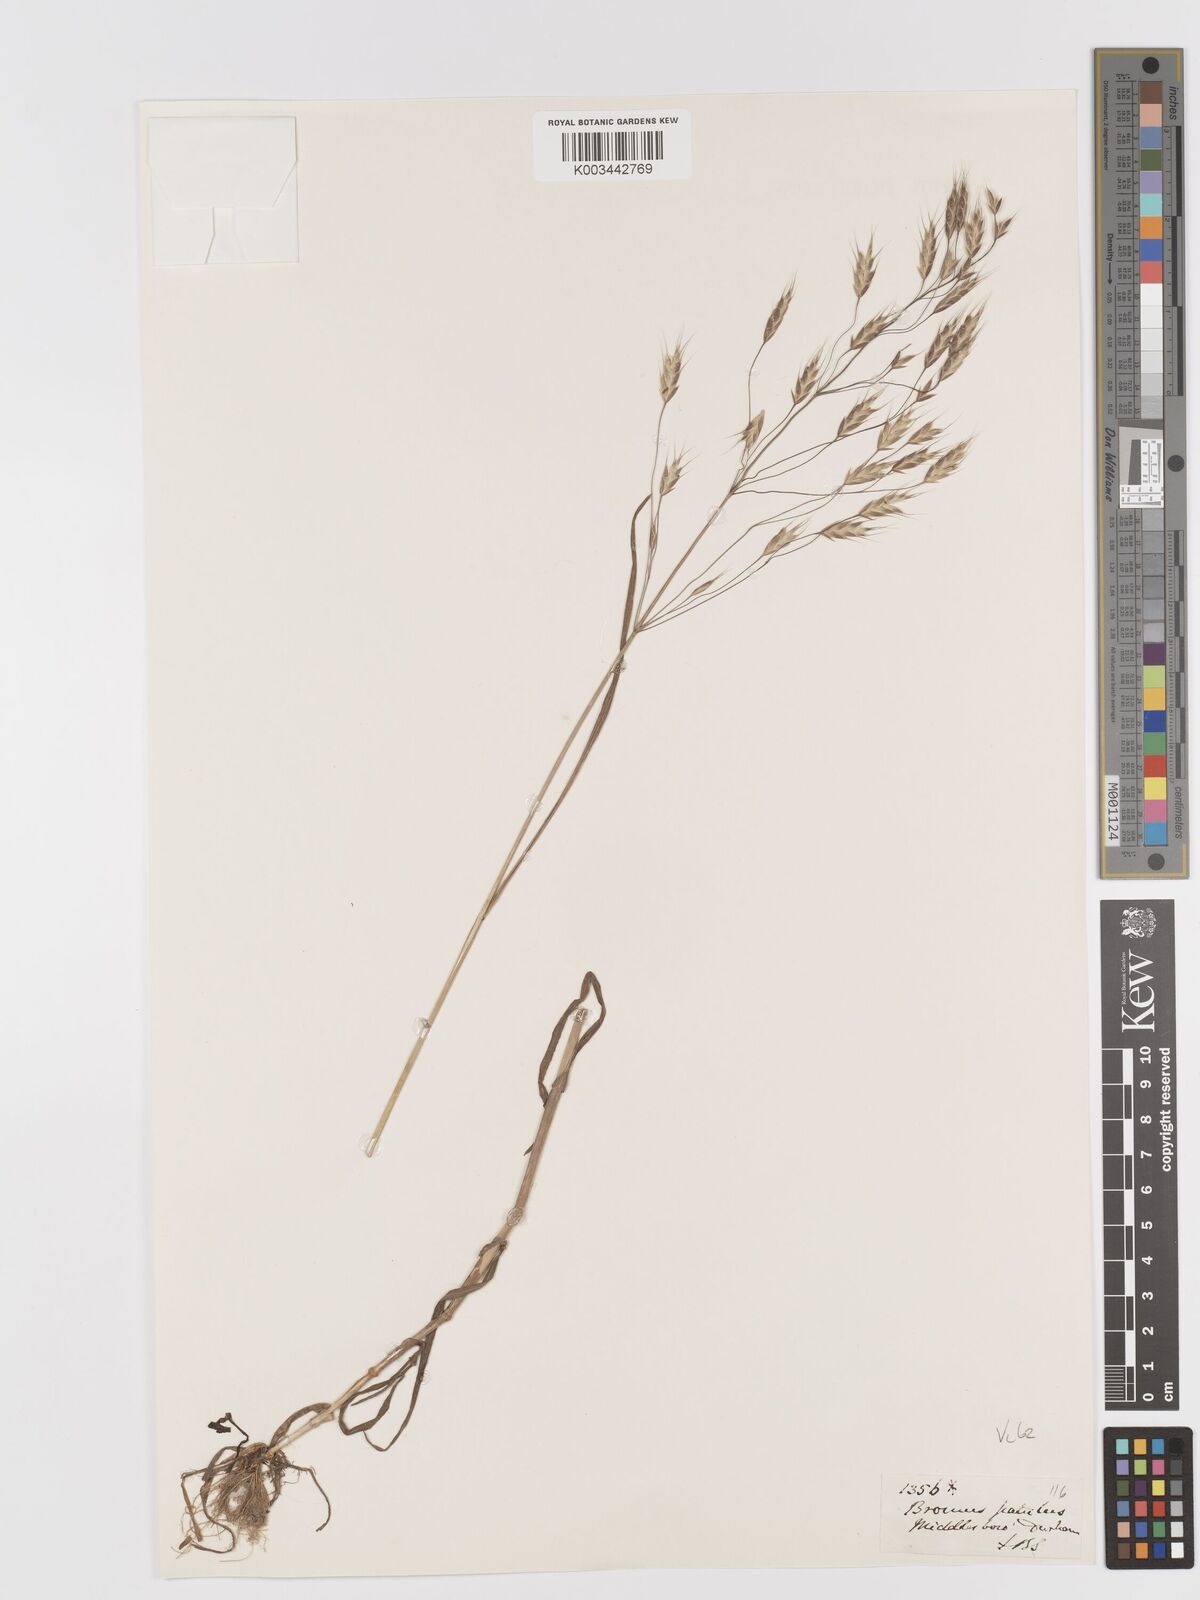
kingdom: Plantae
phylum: Tracheophyta
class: Liliopsida
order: Poales
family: Poaceae
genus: Bromus
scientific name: Bromus japonicus
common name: Japanese brome
